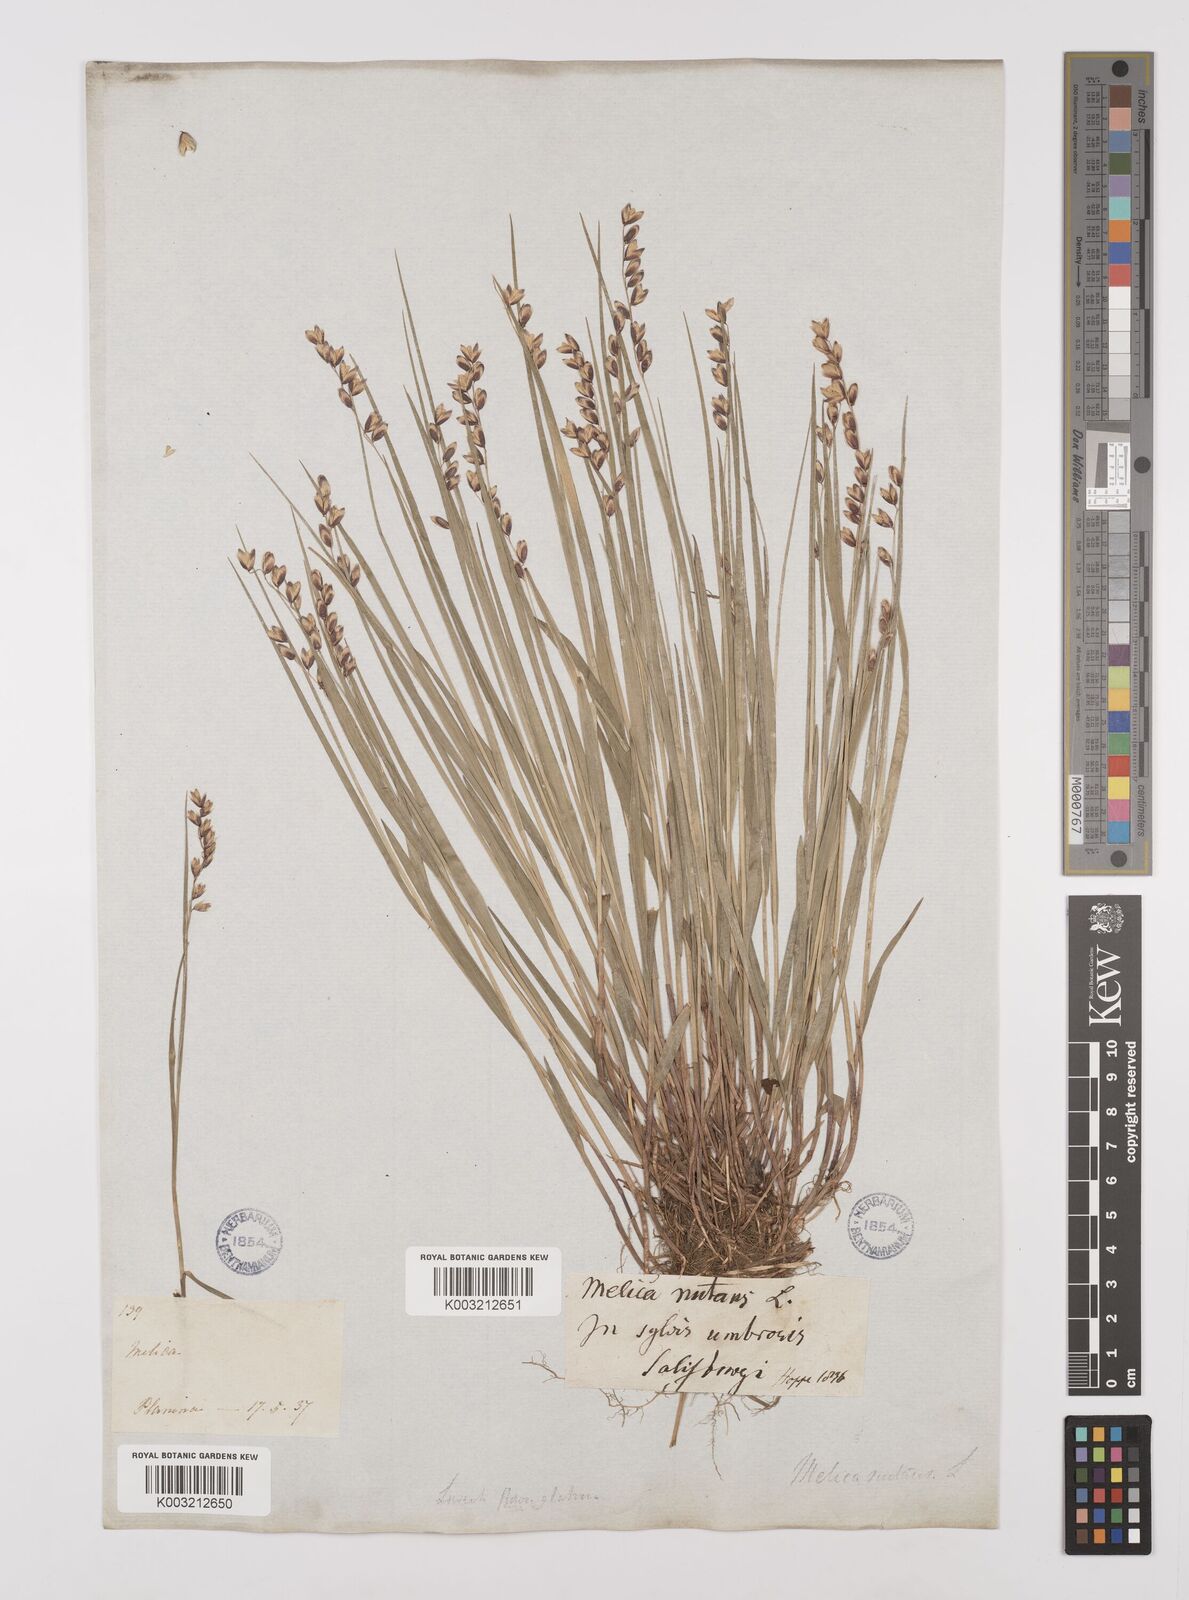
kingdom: Plantae
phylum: Tracheophyta
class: Liliopsida
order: Poales
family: Poaceae
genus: Melica
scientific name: Melica
